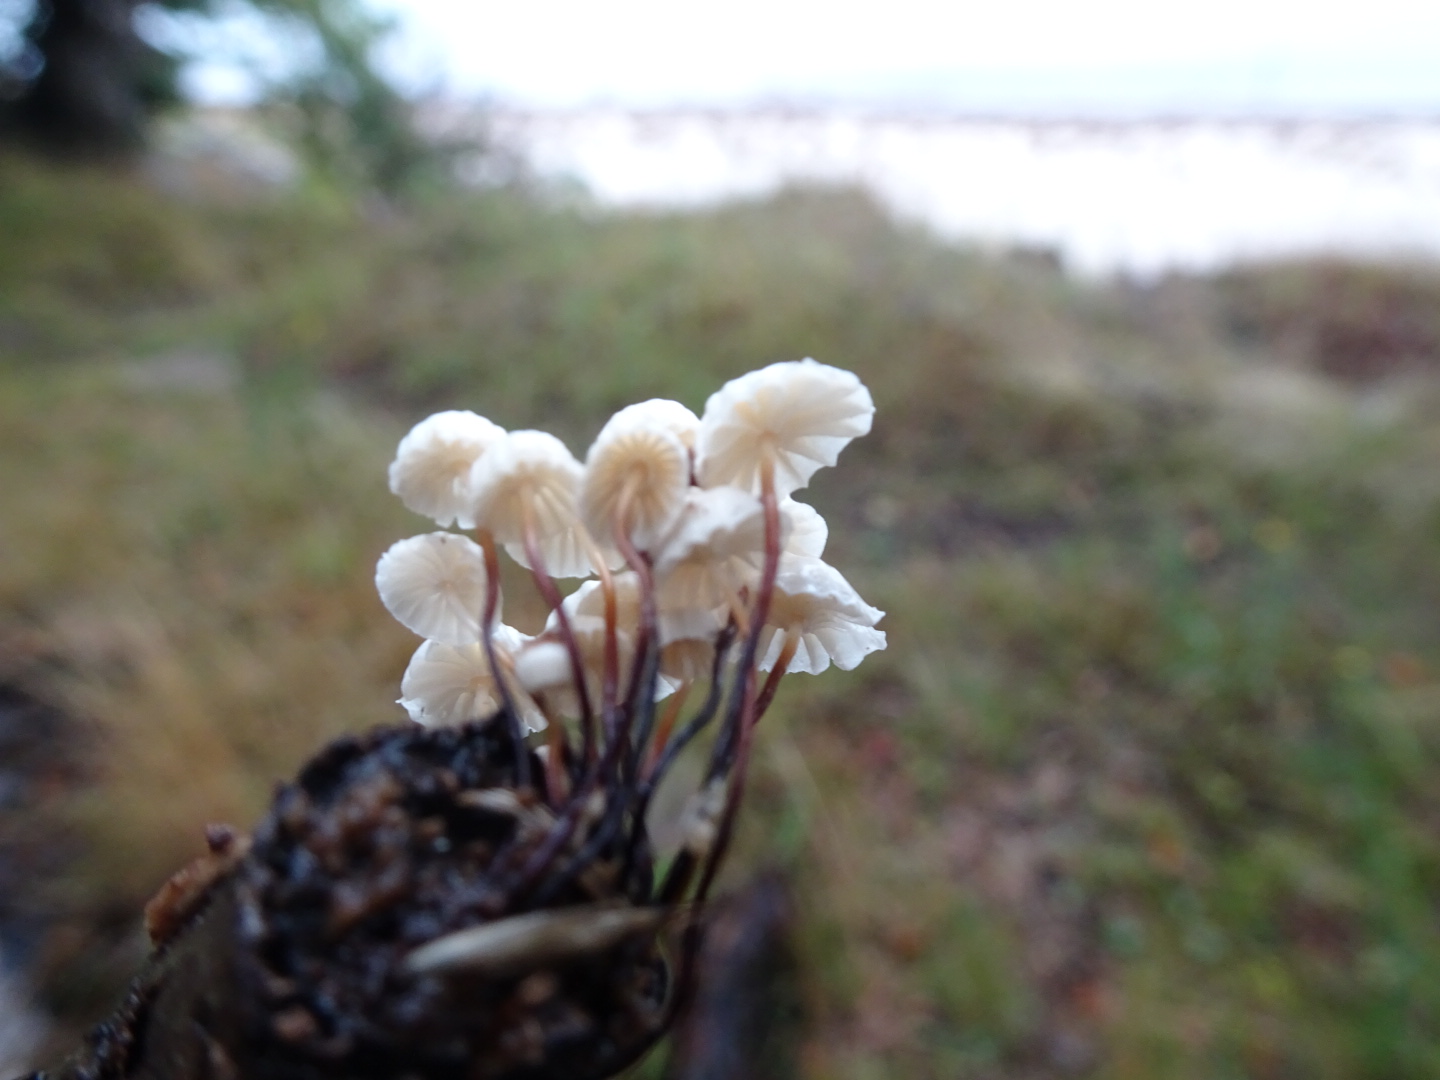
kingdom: Fungi
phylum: Basidiomycota
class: Agaricomycetes
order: Agaricales
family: Marasmiaceae
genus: Marasmius
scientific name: Marasmius rotula
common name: hjul-bruskhat
